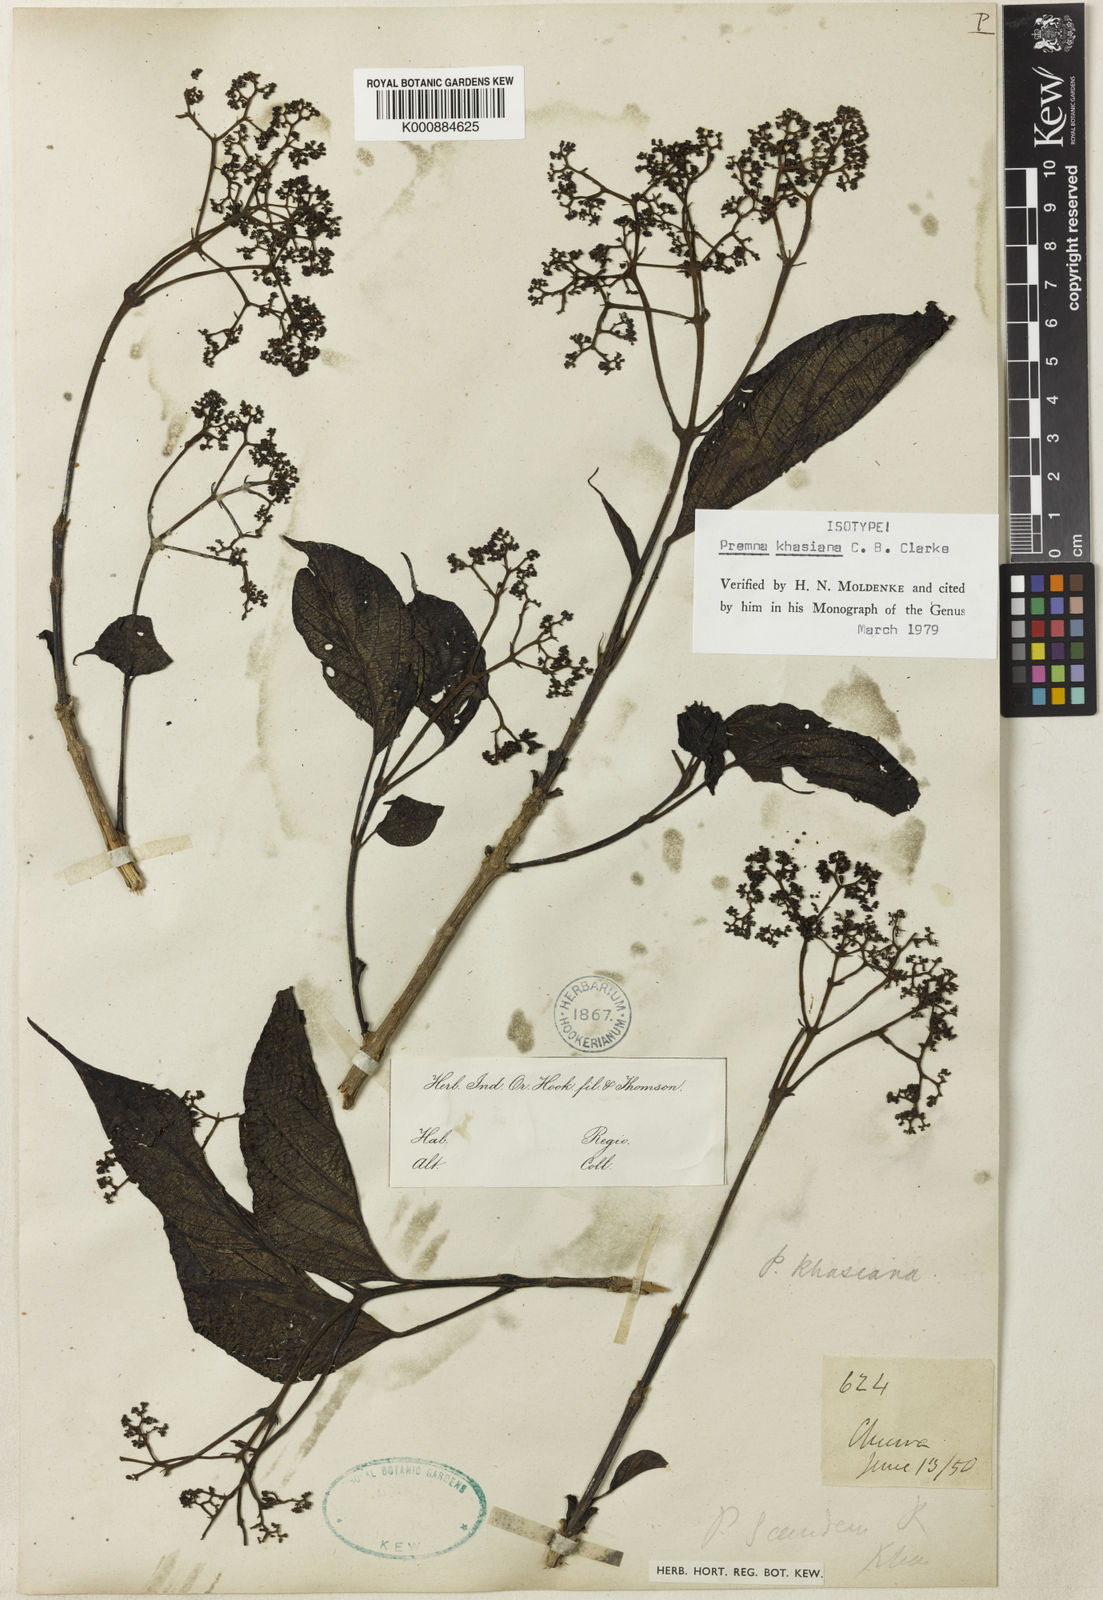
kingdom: Plantae
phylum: Tracheophyta
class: Magnoliopsida
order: Lamiales
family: Lamiaceae
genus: Premna
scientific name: Premna khasiana
